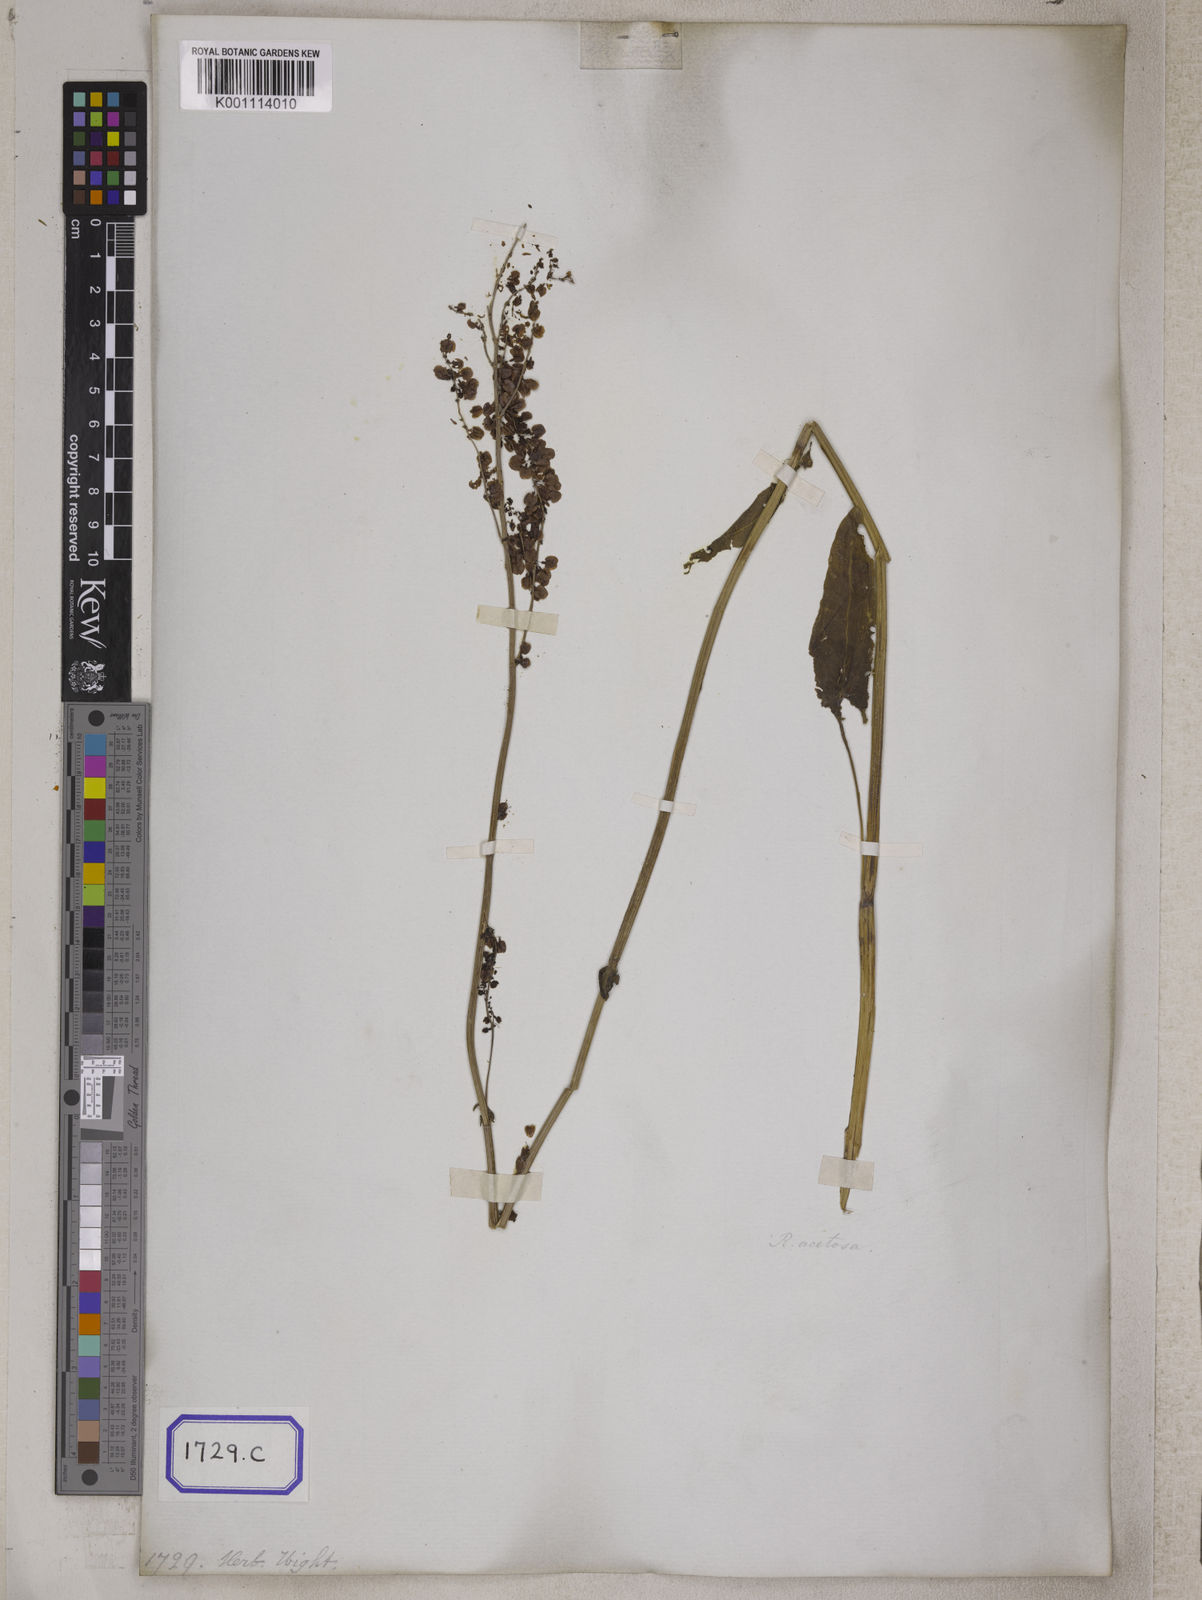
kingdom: Plantae
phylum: Tracheophyta
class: Magnoliopsida
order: Caryophyllales
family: Polygonaceae
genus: Rumex
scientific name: Rumex hastatus
